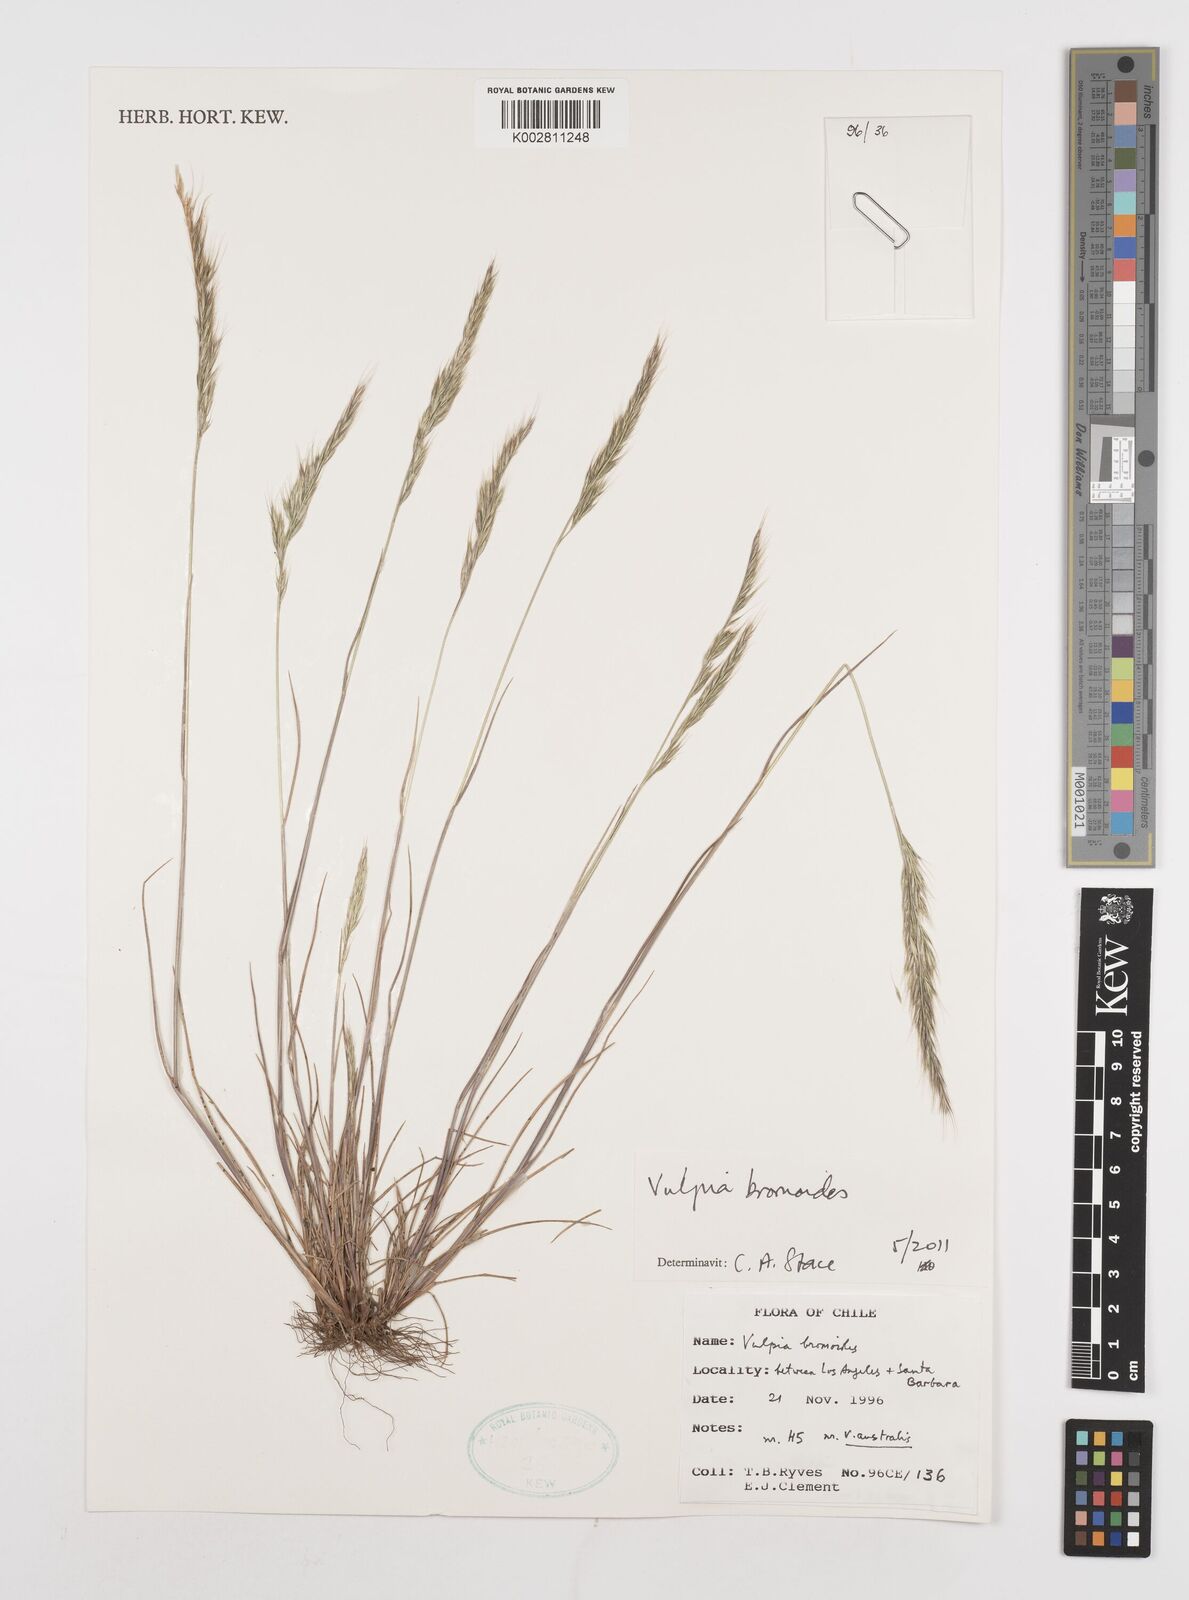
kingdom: Plantae
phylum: Tracheophyta
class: Liliopsida
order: Poales
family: Poaceae
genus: Festuca
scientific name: Festuca bromoides
